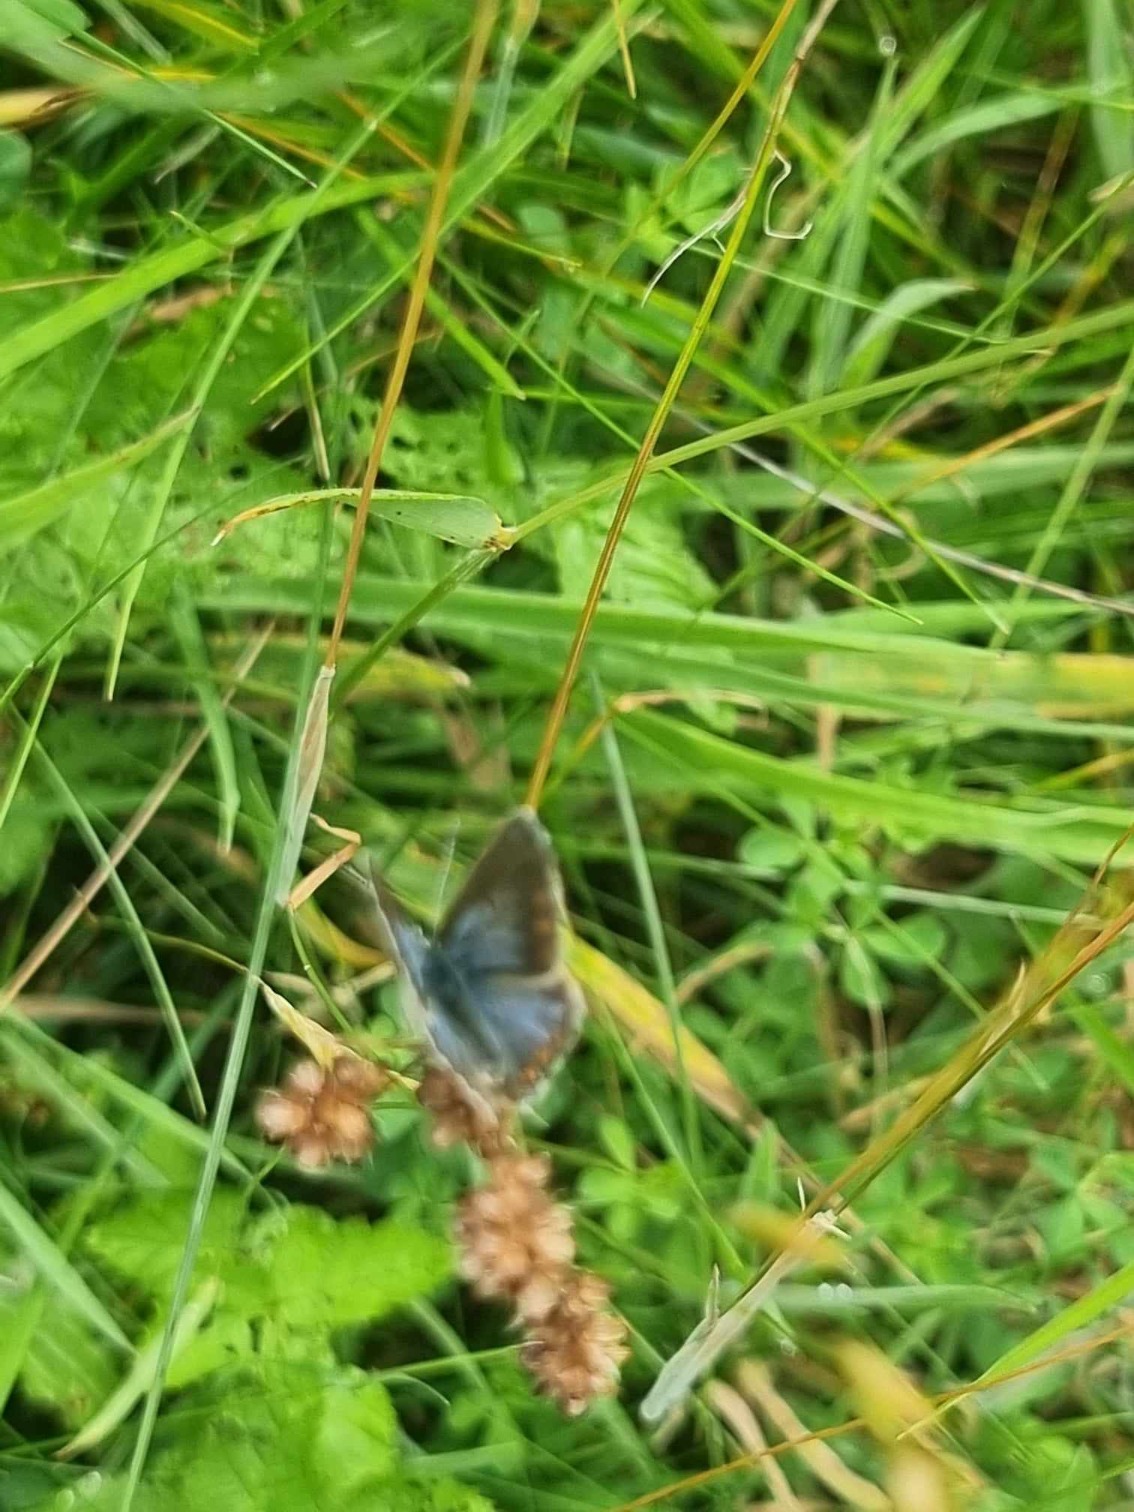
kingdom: Animalia
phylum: Arthropoda
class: Insecta
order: Lepidoptera
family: Lycaenidae
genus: Polyommatus
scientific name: Polyommatus icarus
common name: Almindelig blåfugl
